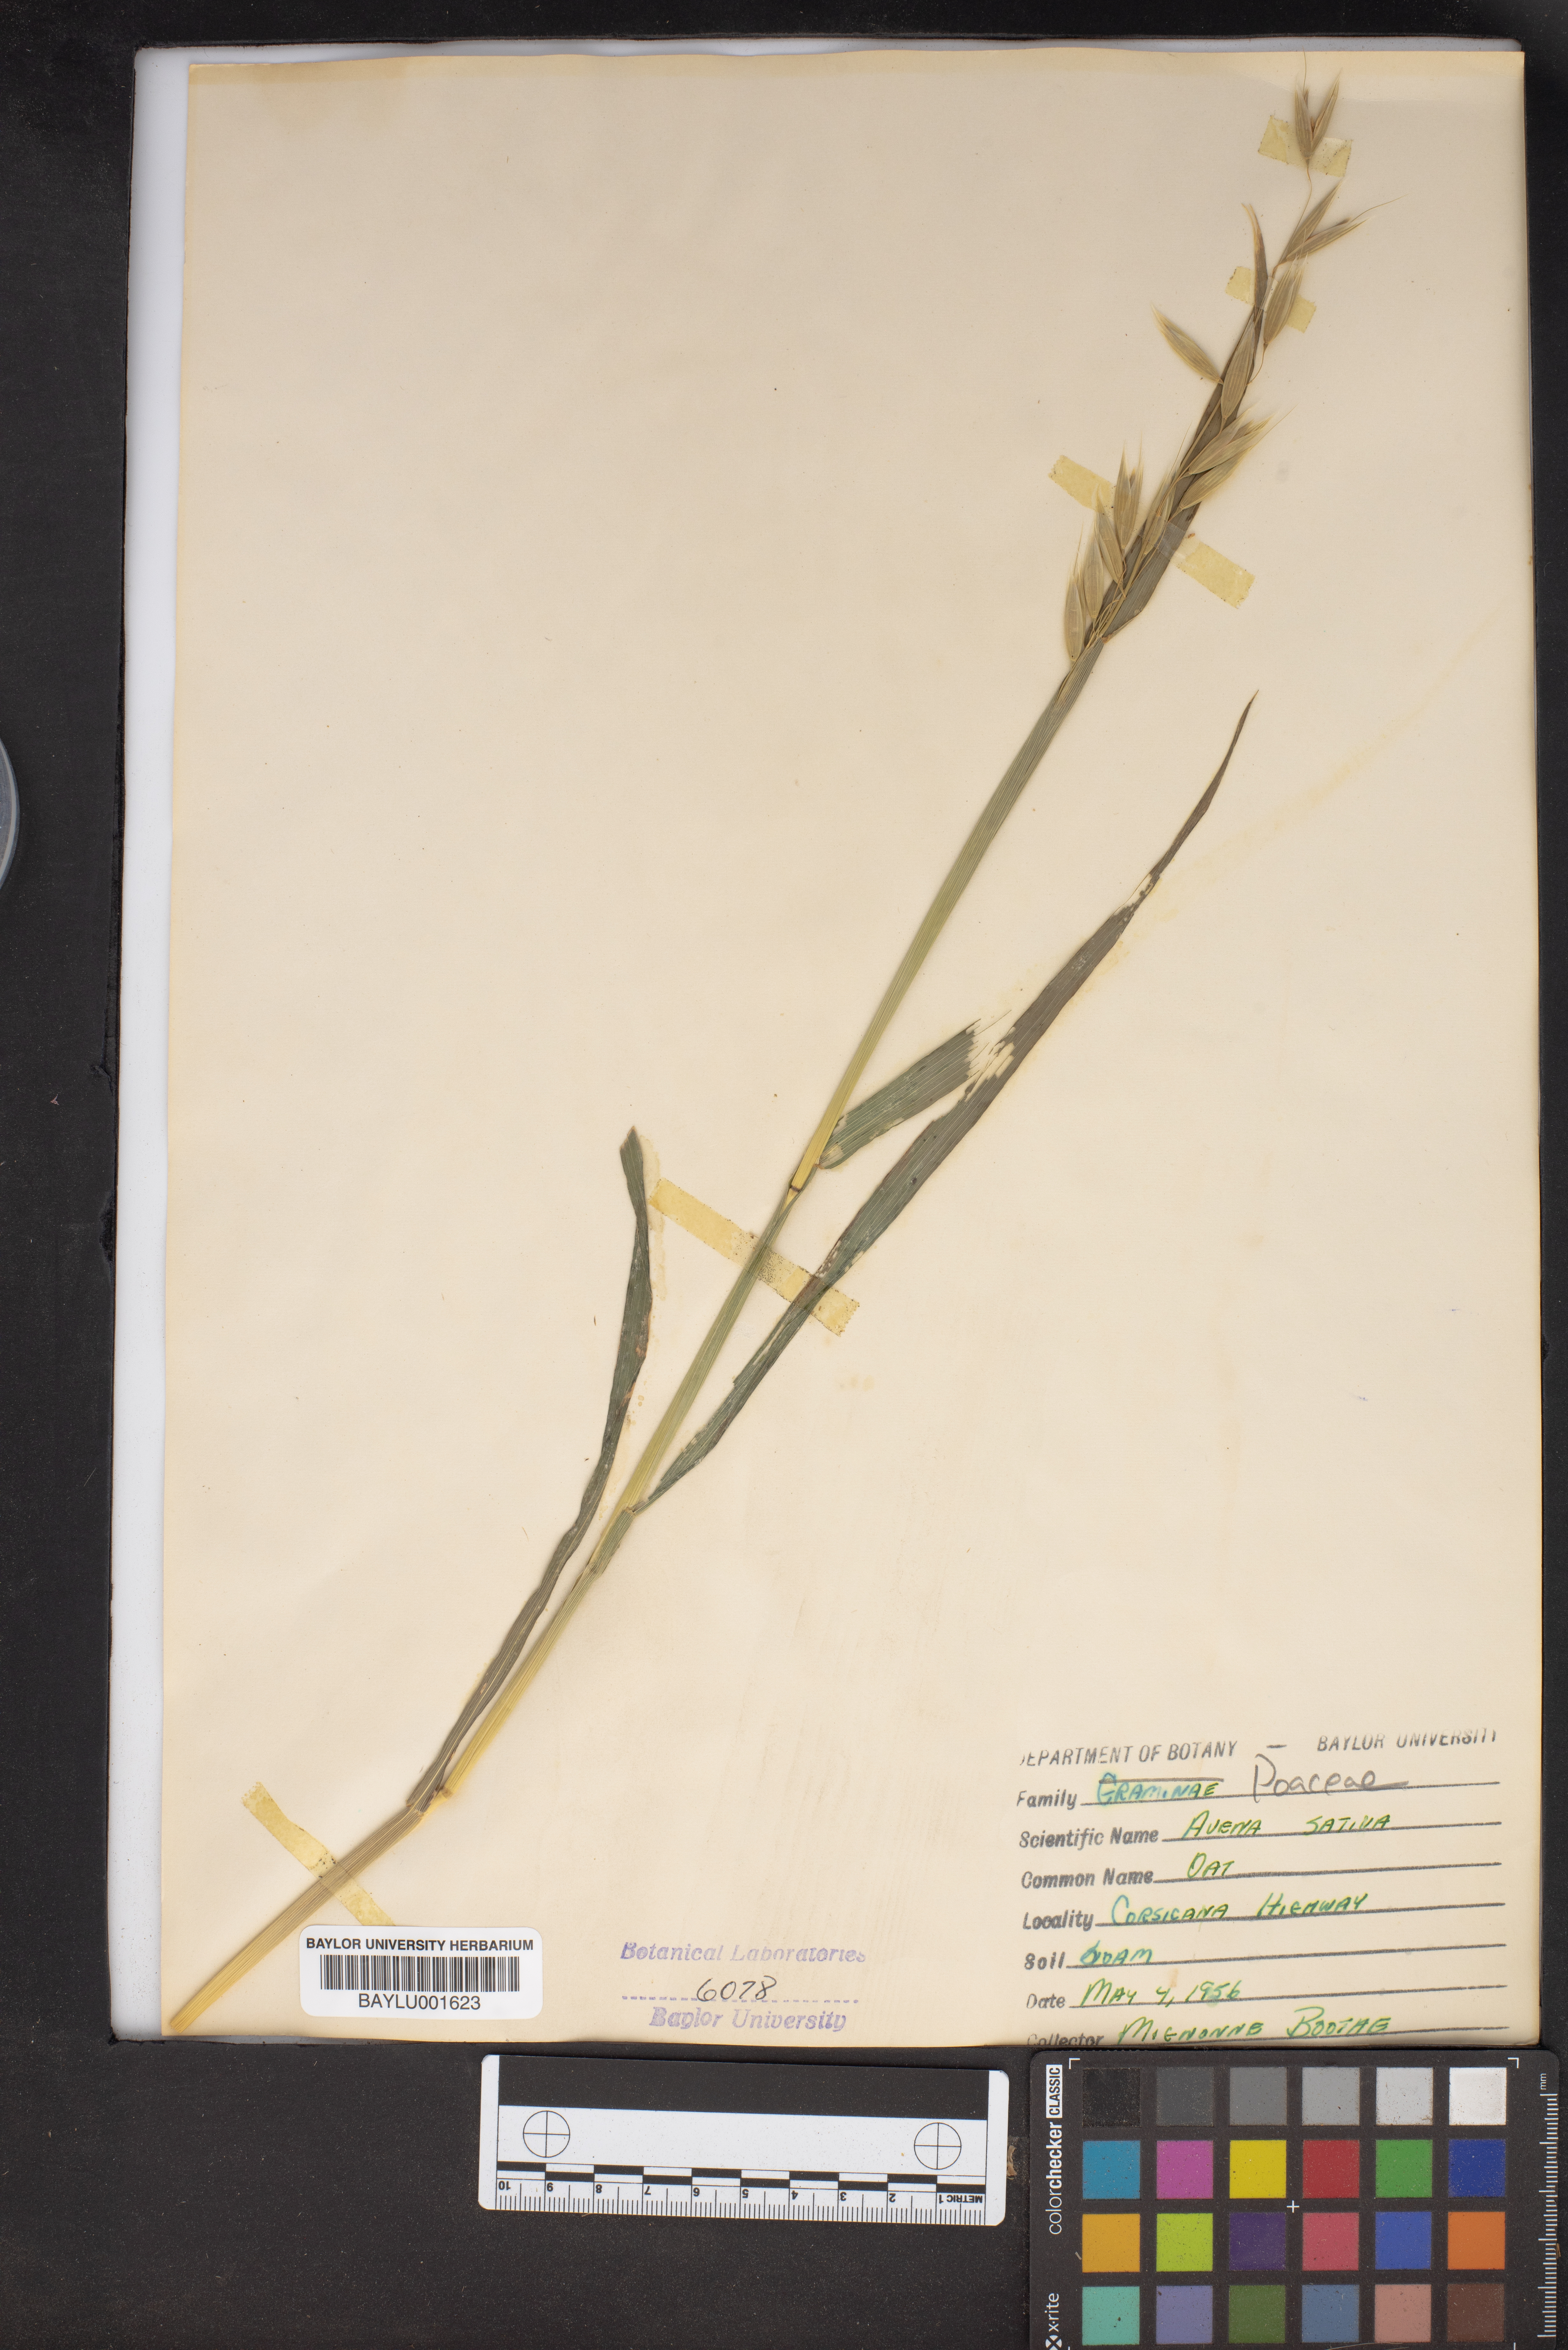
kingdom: Plantae
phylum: Tracheophyta
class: Liliopsida
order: Poales
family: Poaceae
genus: Avena
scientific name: Avena sativa
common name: Oat
